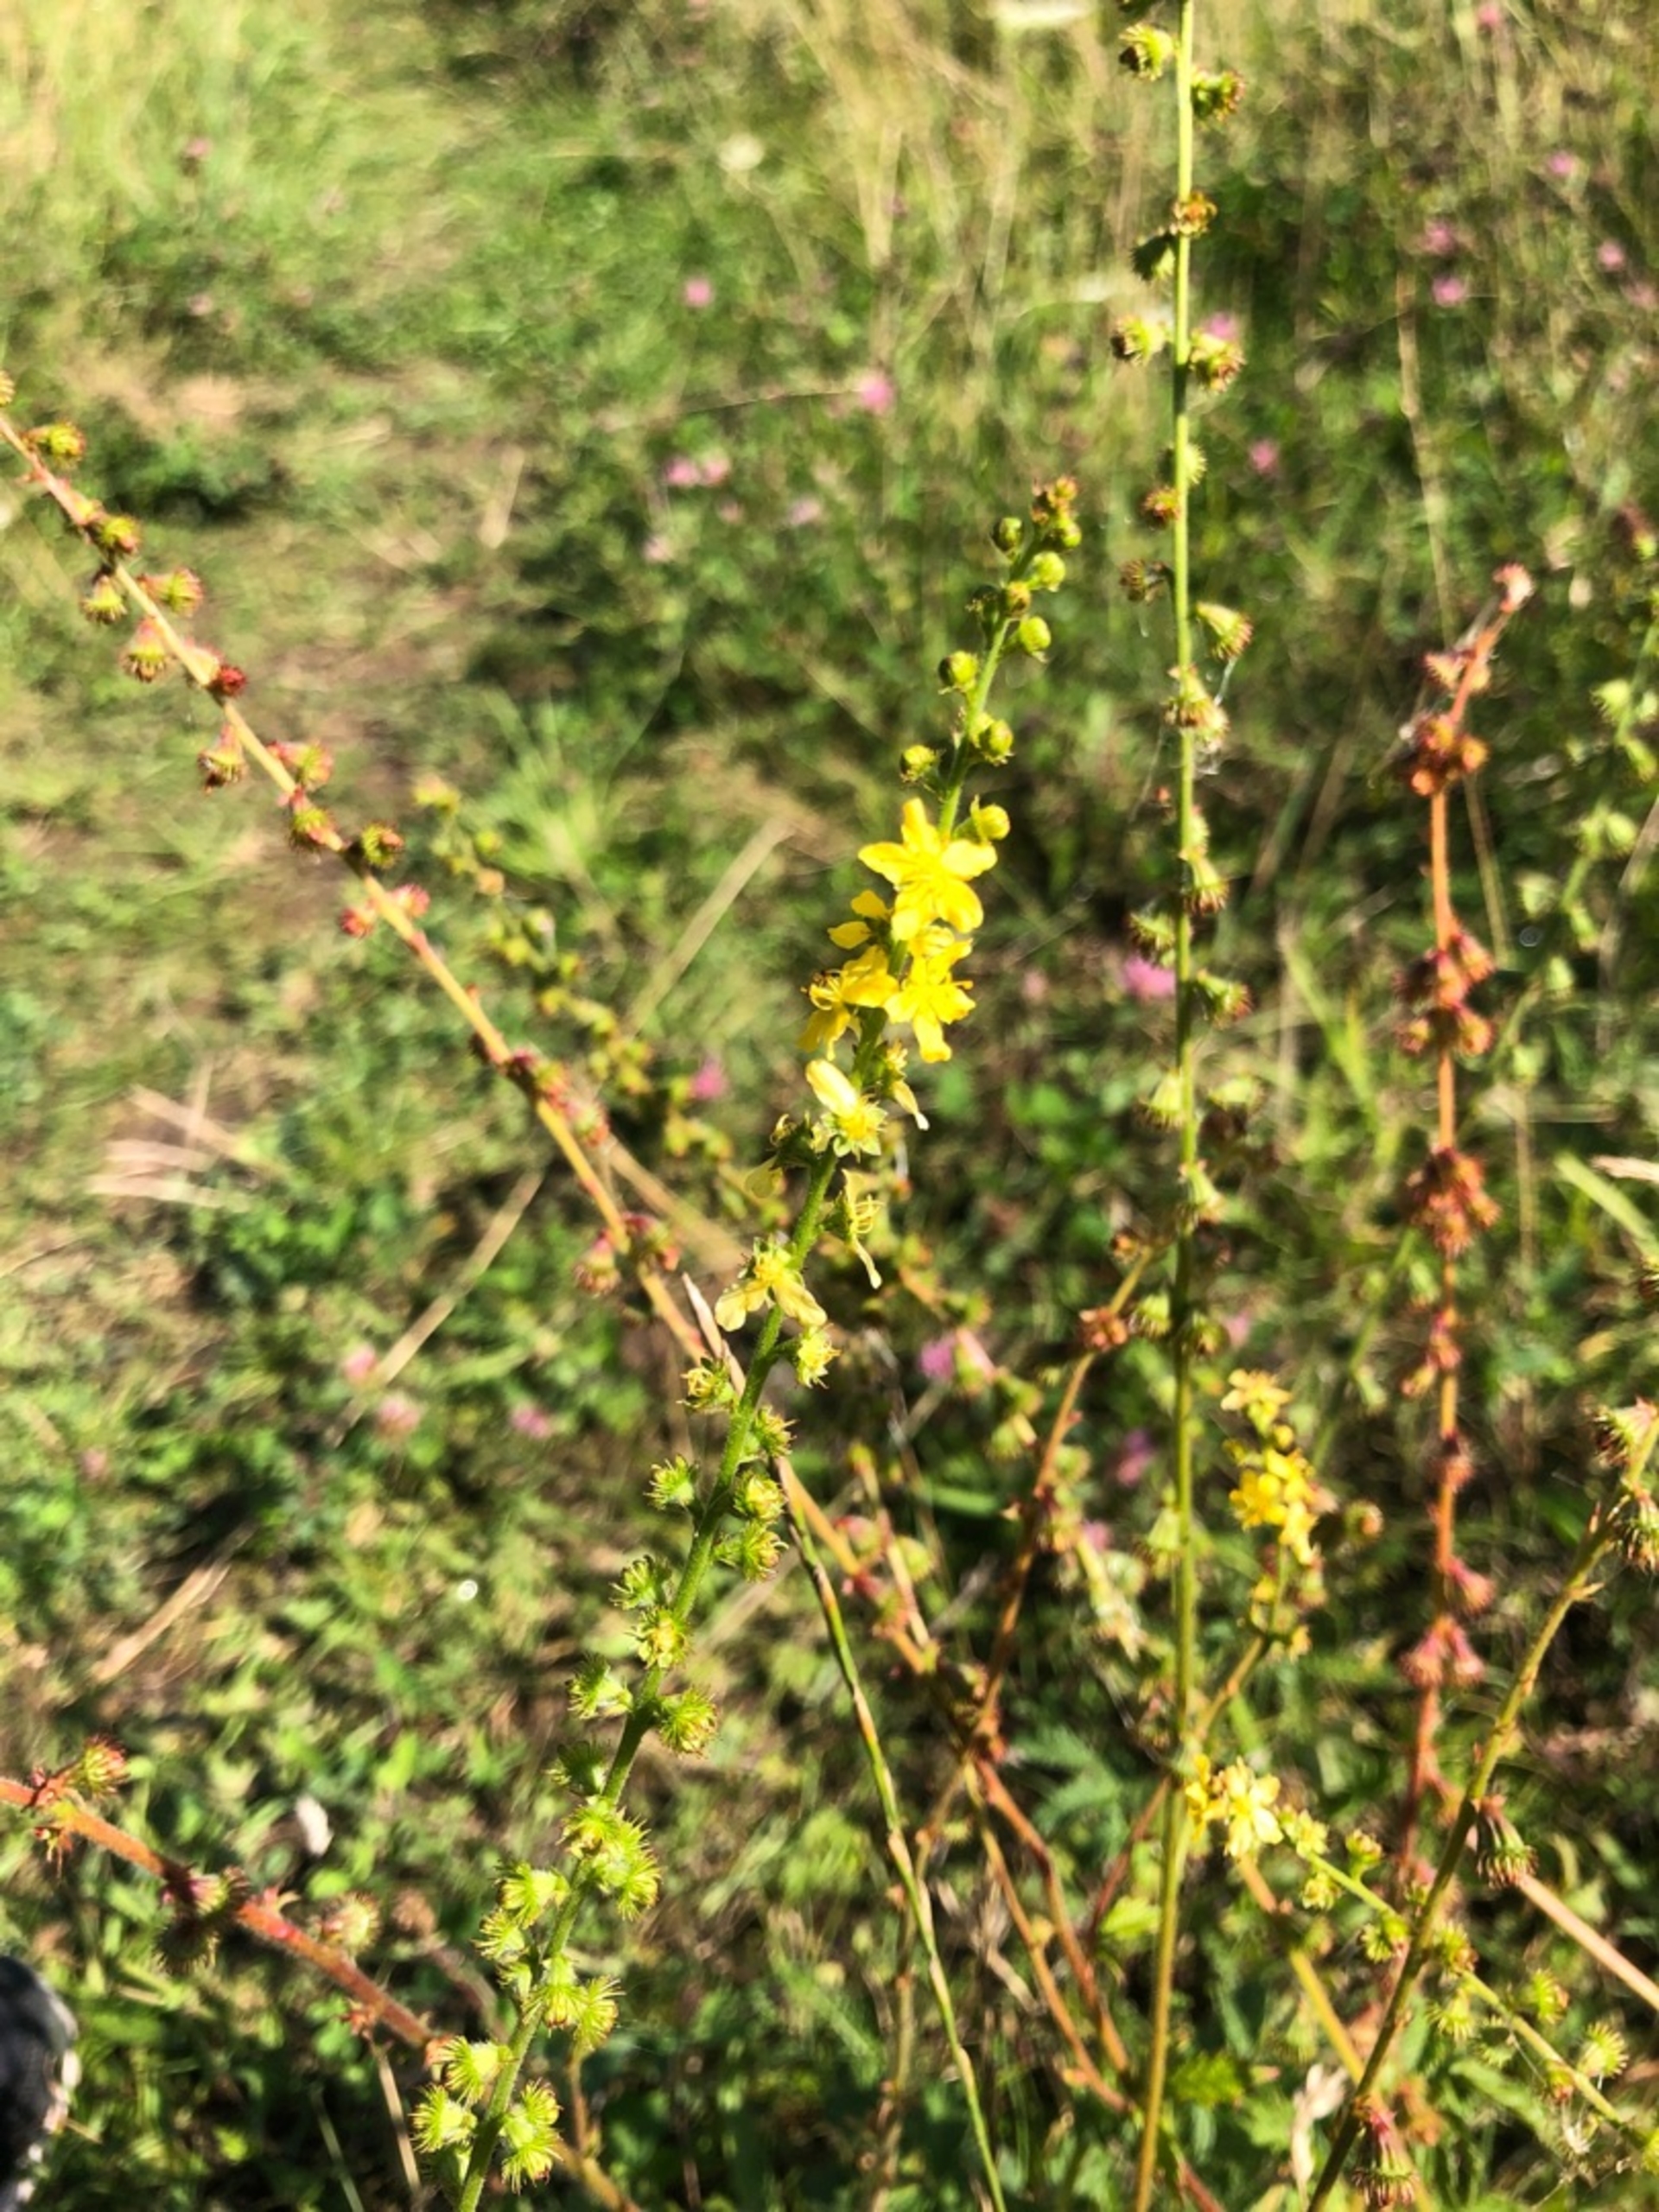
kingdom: Plantae
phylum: Tracheophyta
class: Magnoliopsida
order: Rosales
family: Rosaceae
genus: Agrimonia
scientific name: Agrimonia eupatoria
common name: Almindelig agermåne
